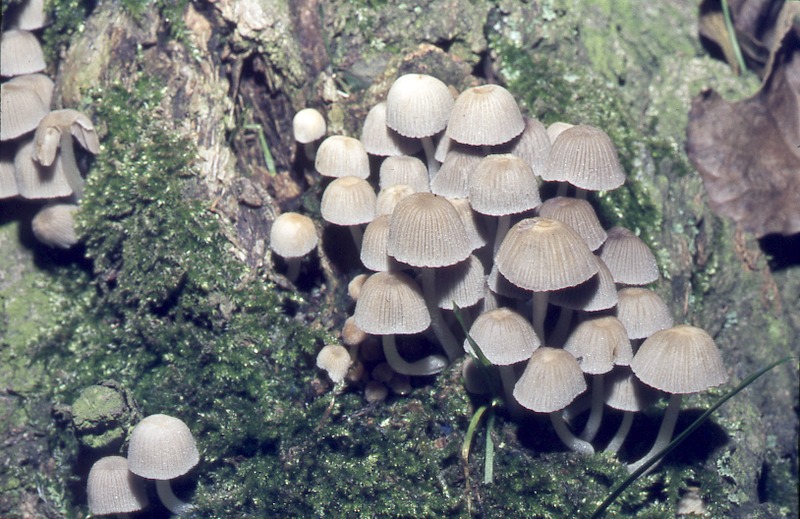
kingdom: Fungi
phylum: Basidiomycota
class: Agaricomycetes
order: Agaricales
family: Psathyrellaceae
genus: Coprinellus
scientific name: Coprinellus disseminatus
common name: Fairies' bonnets
